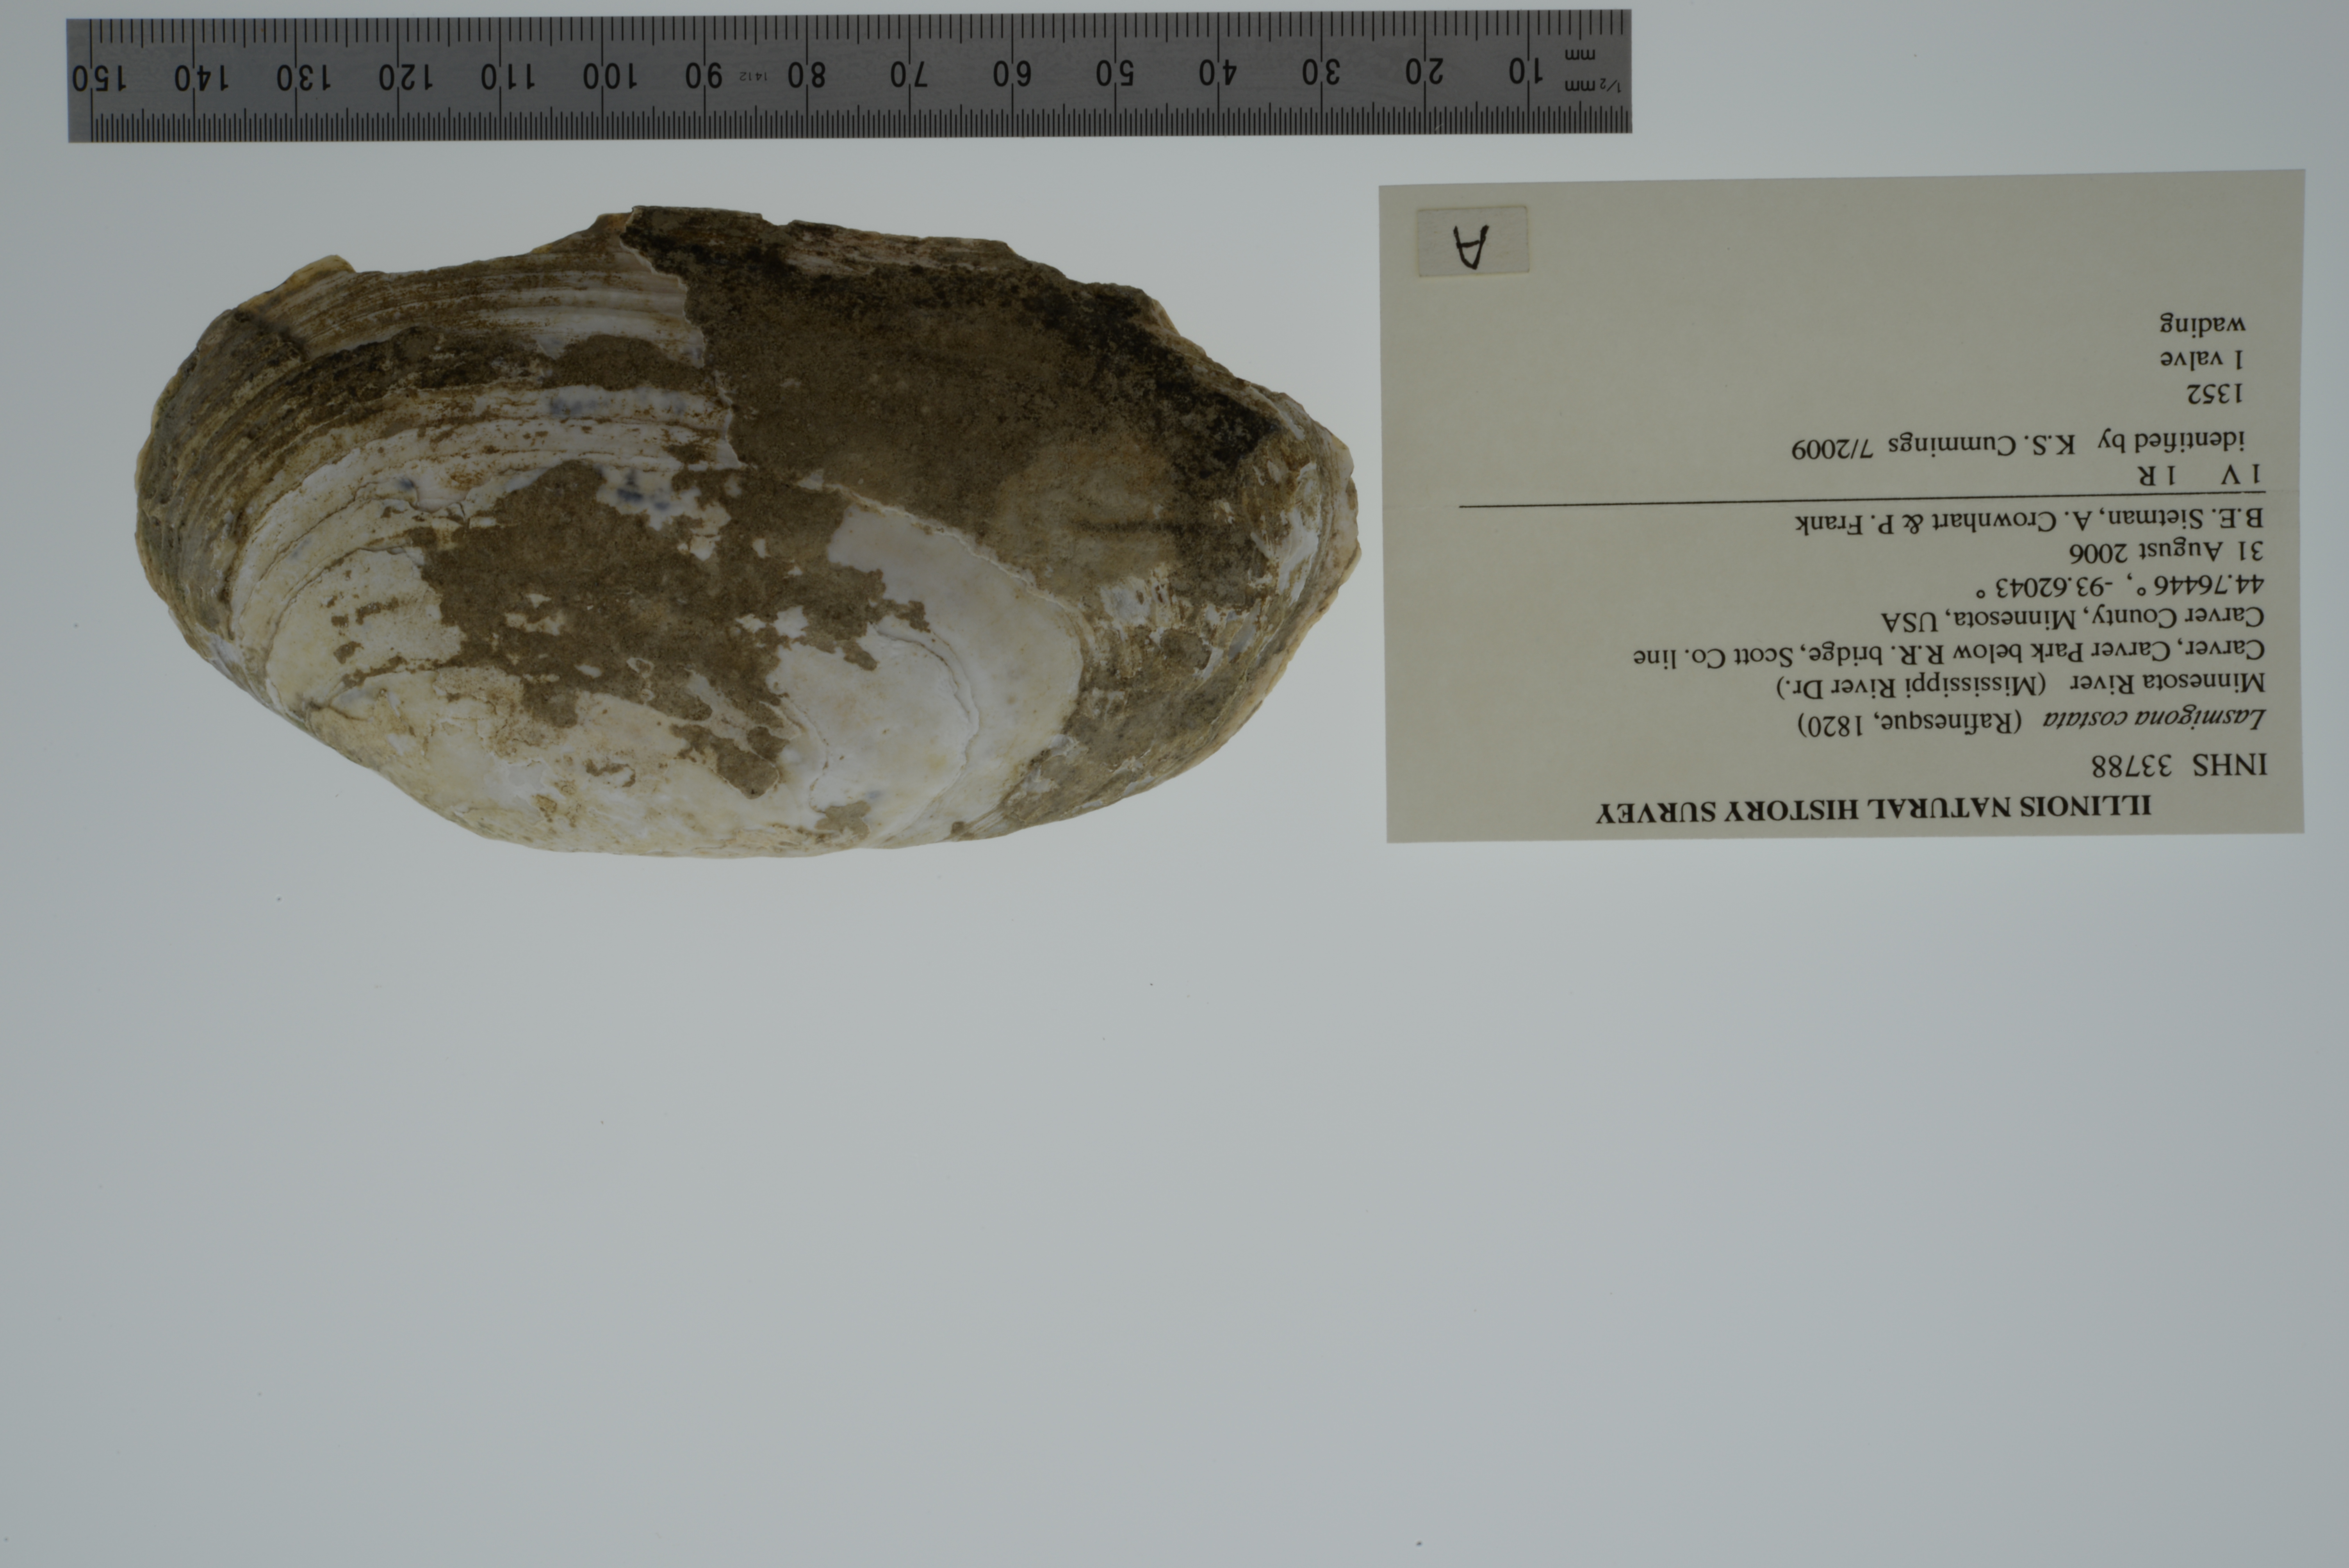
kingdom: Animalia
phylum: Mollusca
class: Bivalvia
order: Unionida
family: Unionidae
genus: Lasmigona
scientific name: Lasmigona costata
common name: Flutedshell
